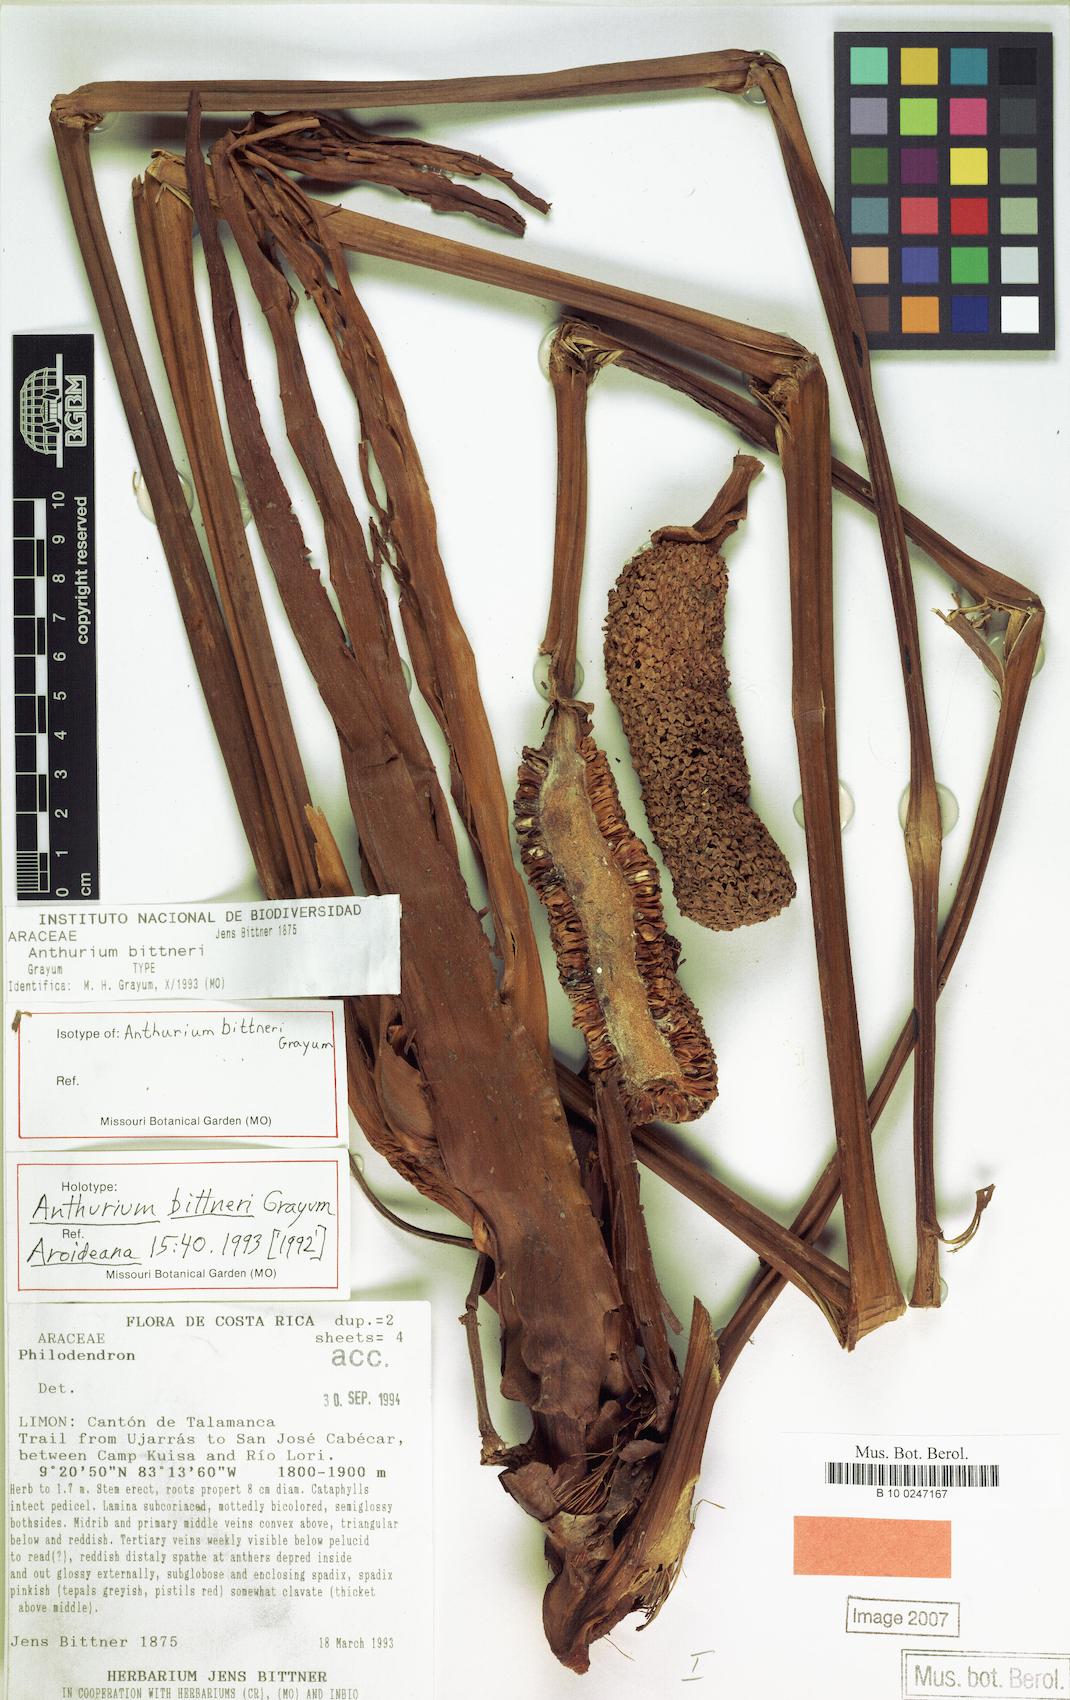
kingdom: Plantae
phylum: Tracheophyta
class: Liliopsida
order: Alismatales
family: Araceae
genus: Anthurium
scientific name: Anthurium bittneri
